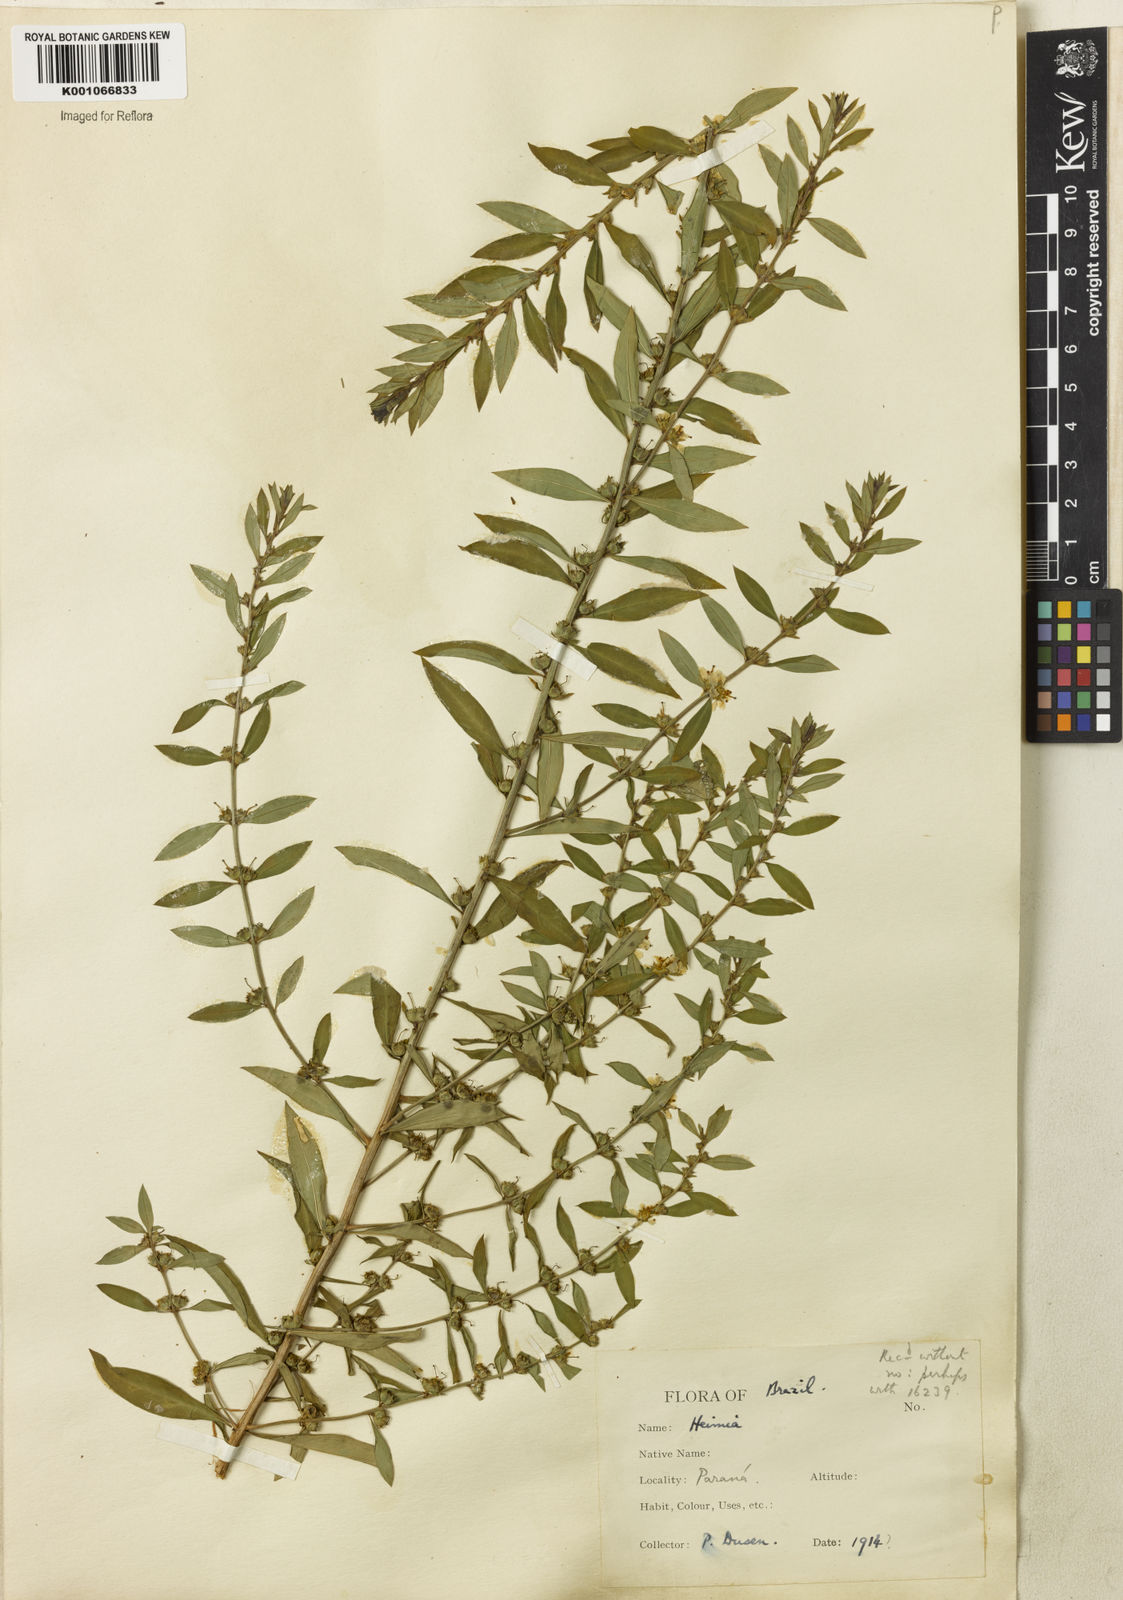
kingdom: Plantae
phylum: Tracheophyta
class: Magnoliopsida
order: Myrtales
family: Lythraceae
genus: Heimia
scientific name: Heimia apetala
